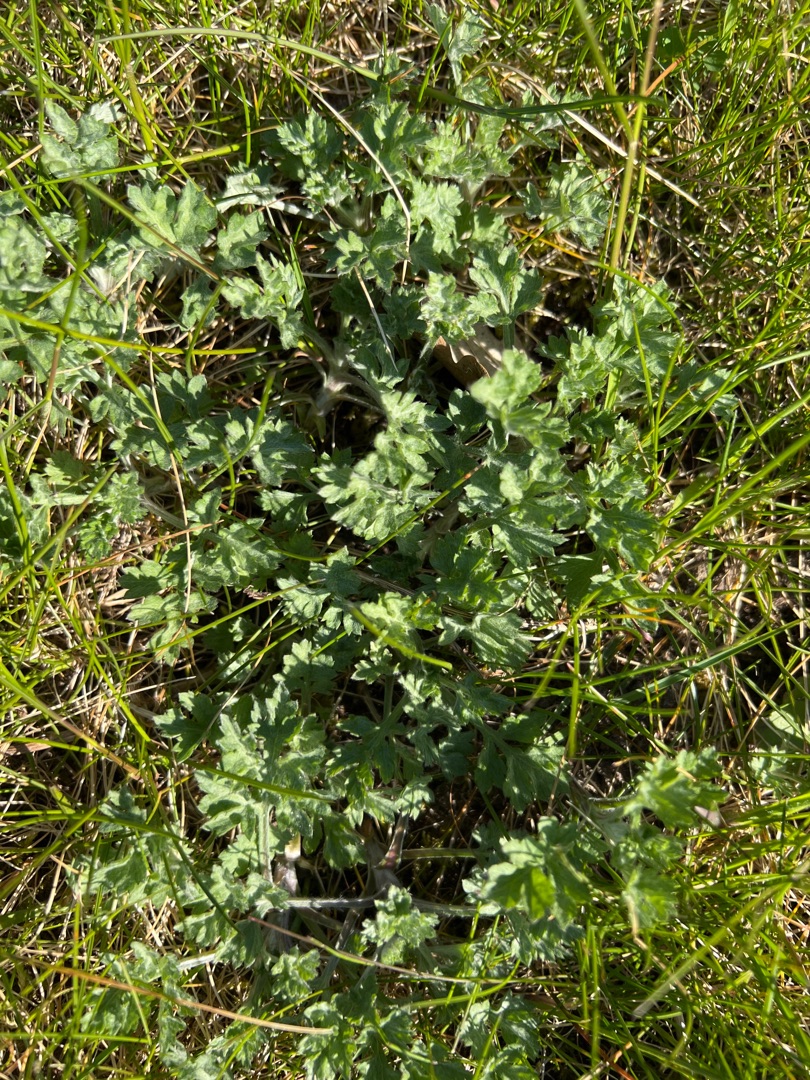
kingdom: Plantae
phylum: Tracheophyta
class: Magnoliopsida
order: Asterales
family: Asteraceae
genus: Artemisia
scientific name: Artemisia vulgaris
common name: Grå-bynke
